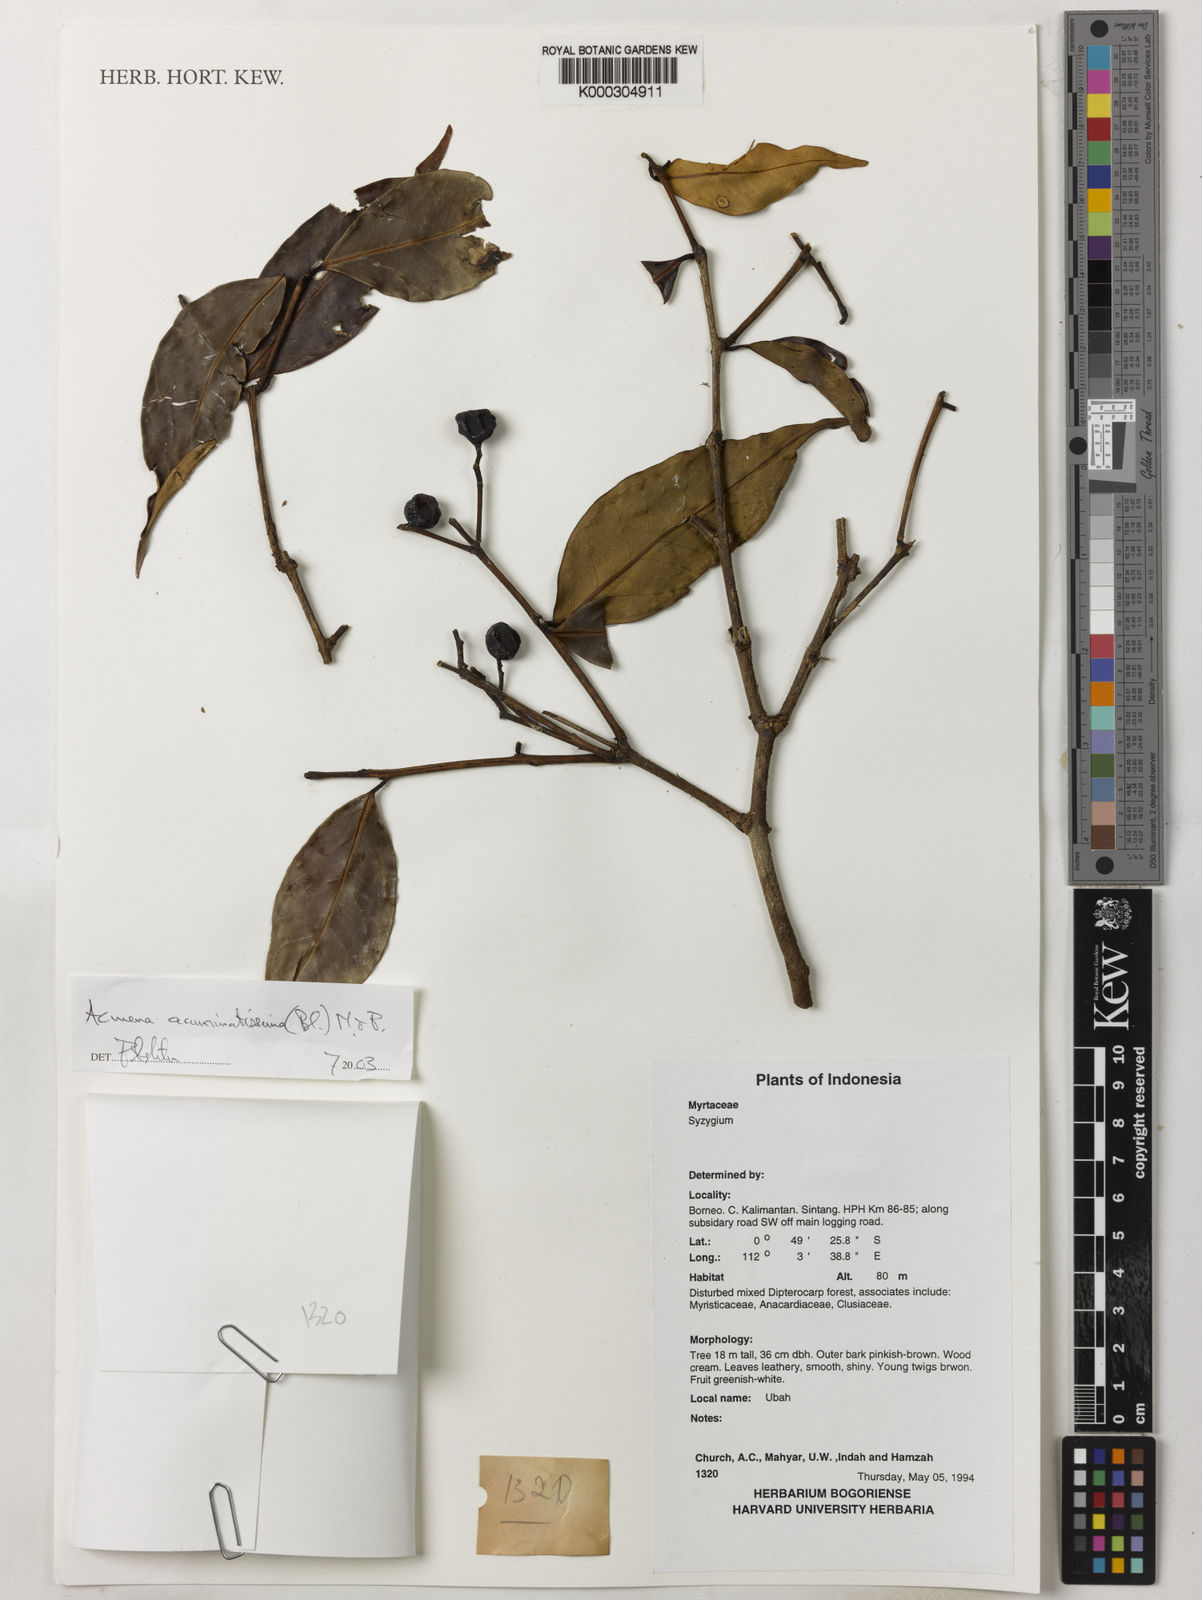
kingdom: Plantae
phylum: Tracheophyta
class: Magnoliopsida
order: Myrtales
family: Myrtaceae
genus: Syzygium
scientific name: Syzygium acuminatissimum
